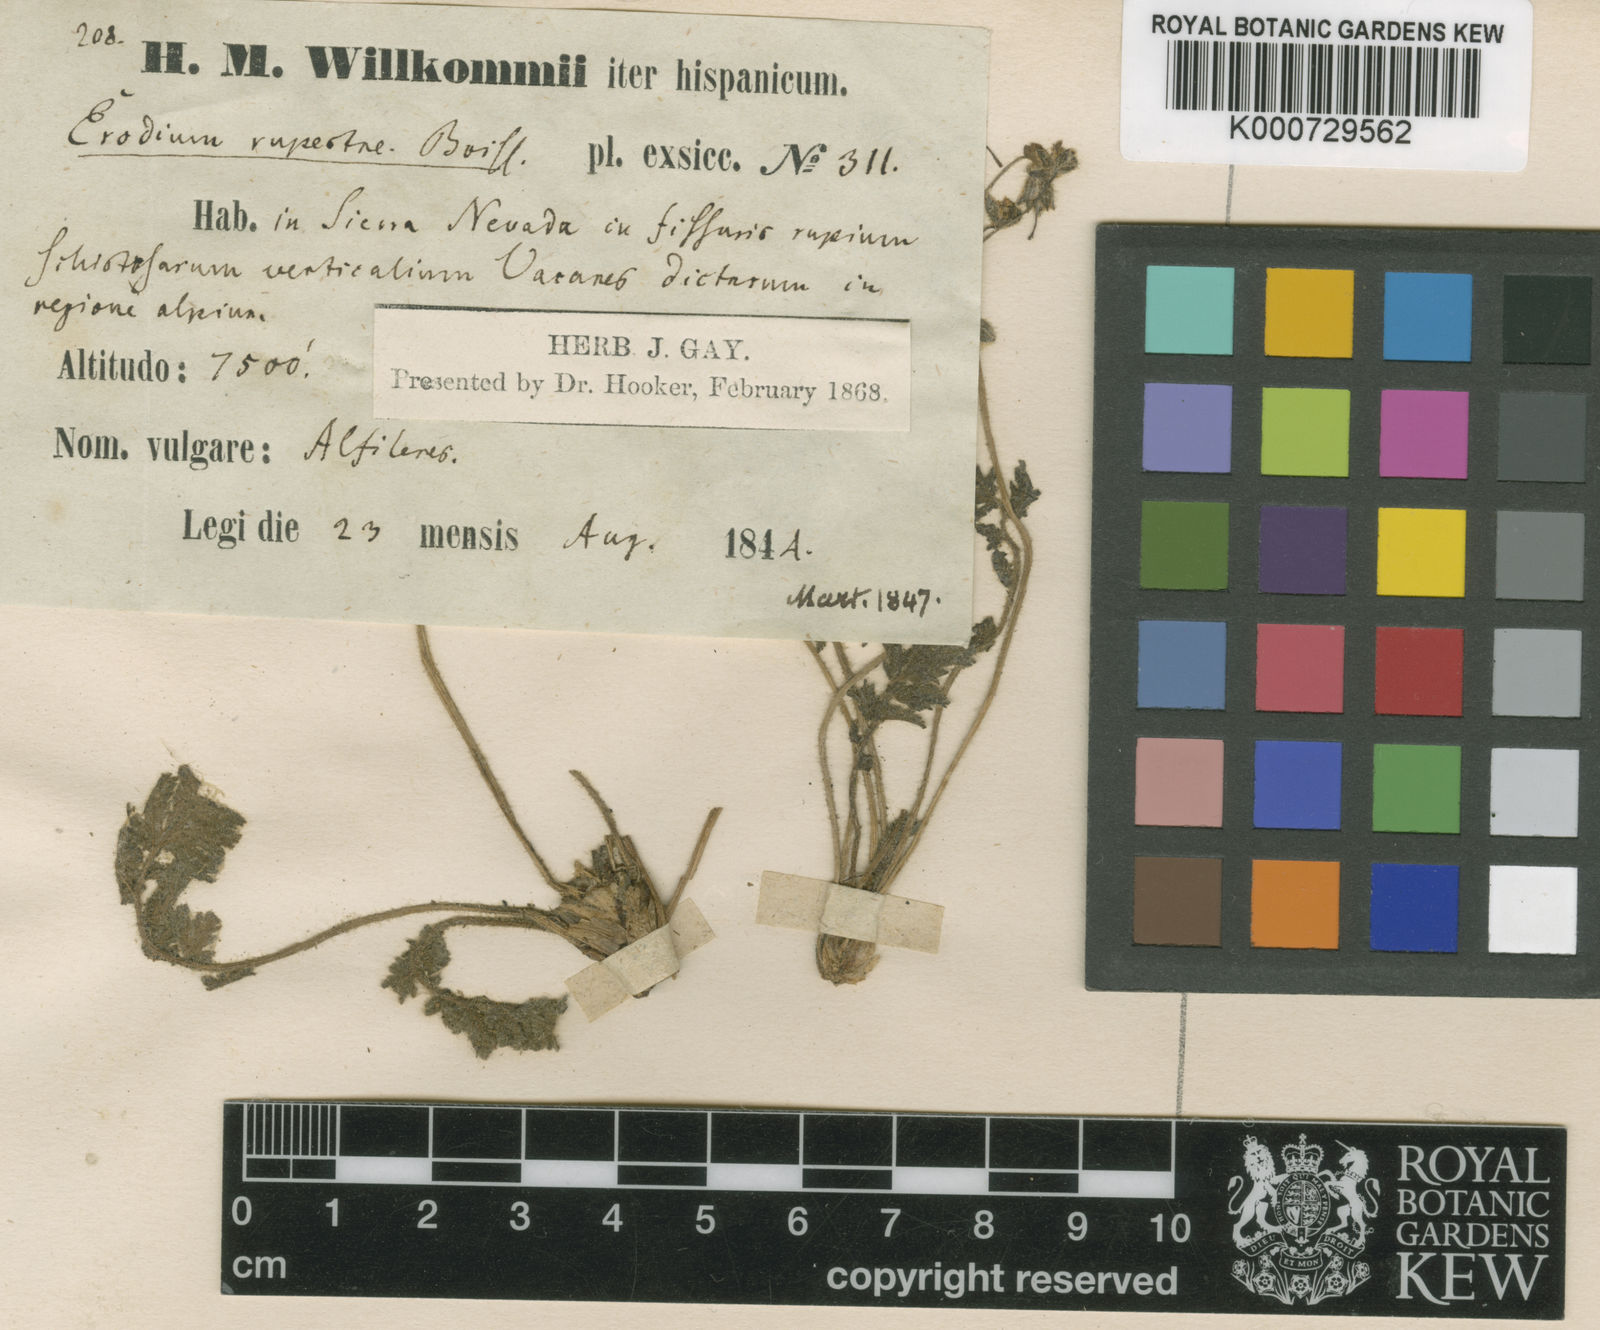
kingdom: Plantae
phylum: Tracheophyta
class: Magnoliopsida
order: Geraniales
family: Geraniaceae
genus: Erodium
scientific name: Erodium rupicola
